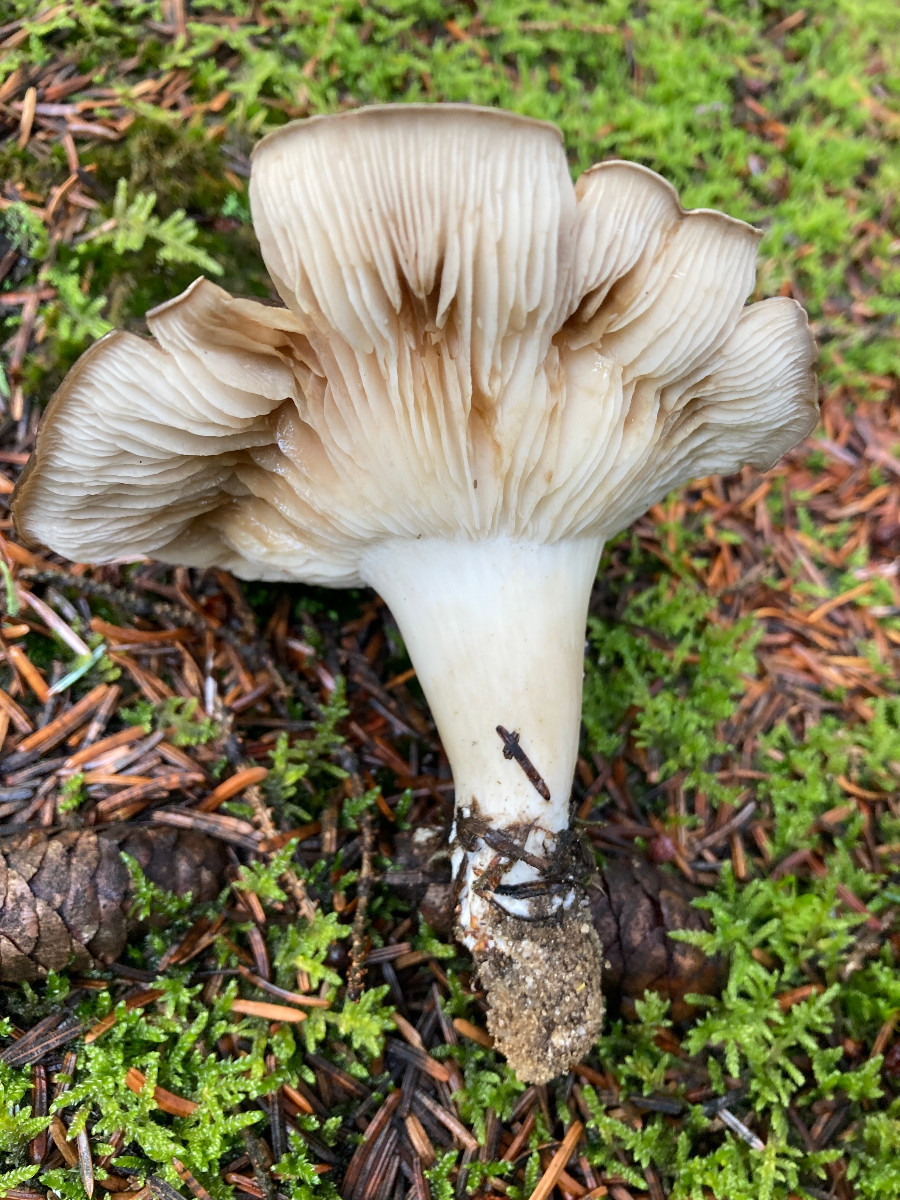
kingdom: Fungi
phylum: Basidiomycota
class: Agaricomycetes
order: Agaricales
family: Lyophyllaceae
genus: Lyophyllum
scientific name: Lyophyllum
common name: gråblad
